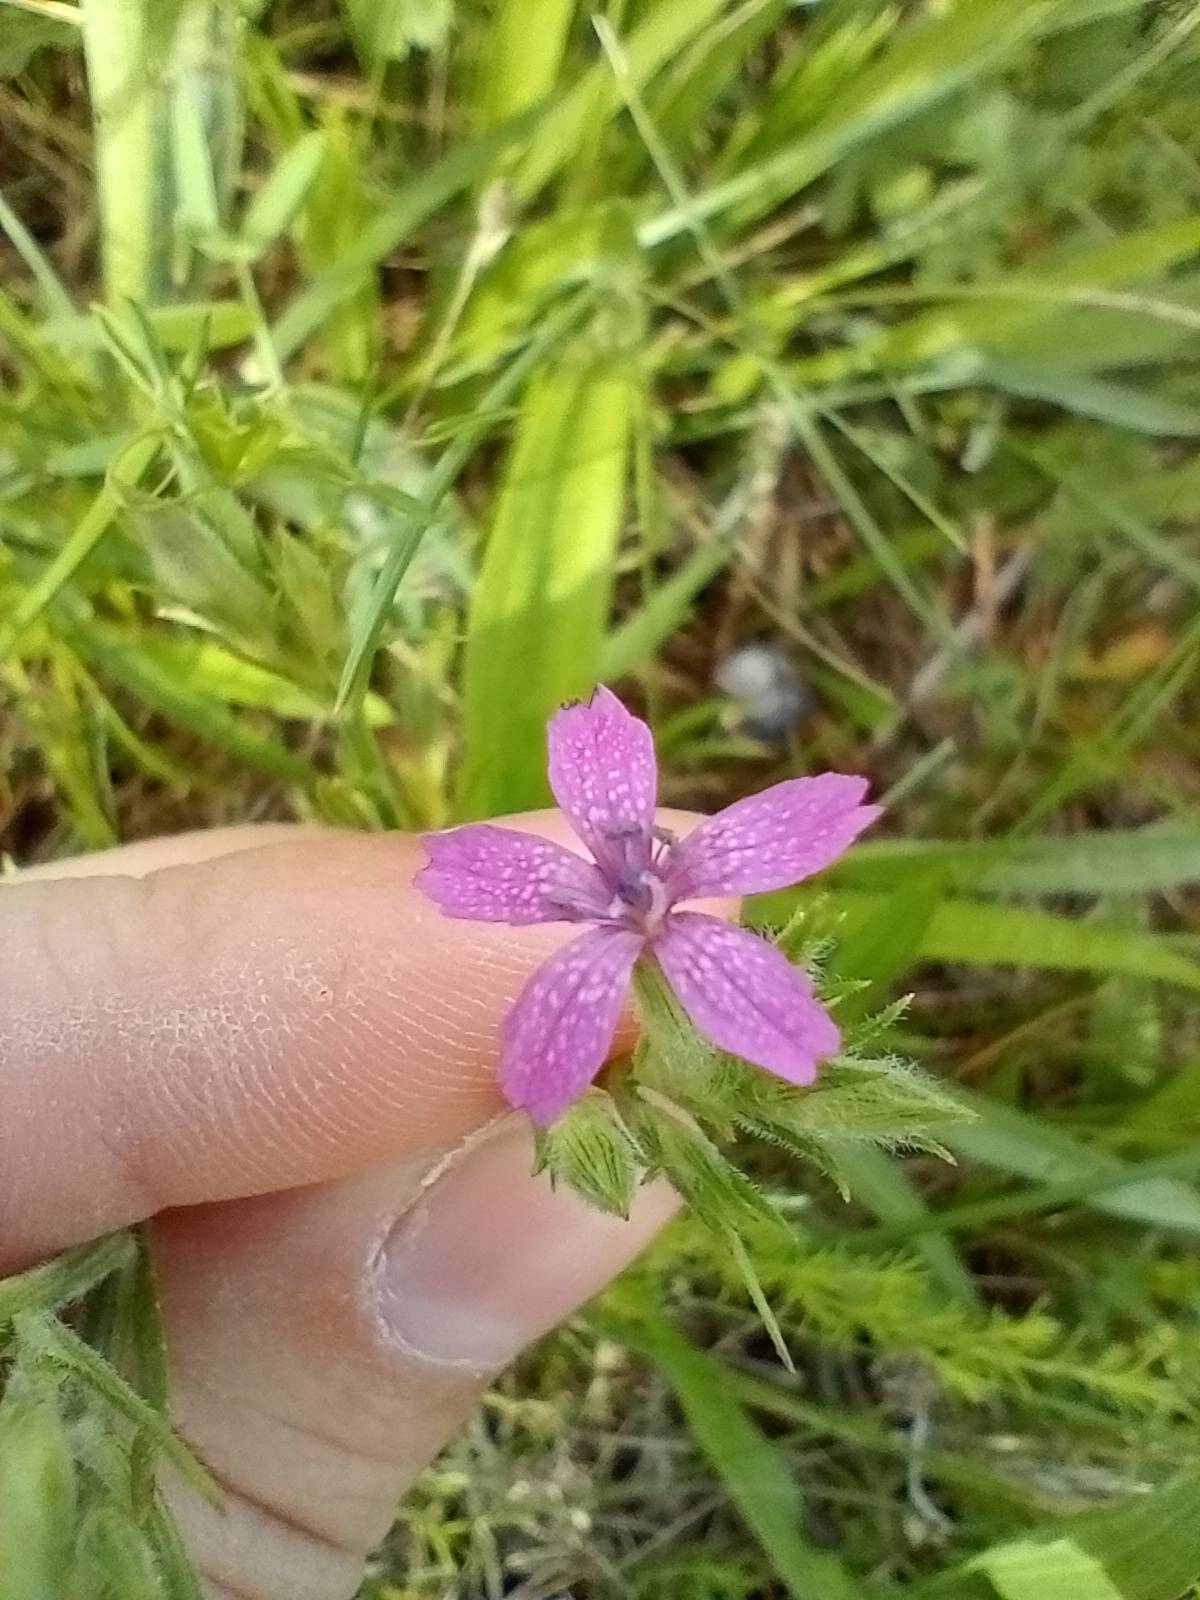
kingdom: Plantae
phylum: Tracheophyta
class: Magnoliopsida
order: Caryophyllales
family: Caryophyllaceae
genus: Dianthus
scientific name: Dianthus armeria
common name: Kost-nellike
